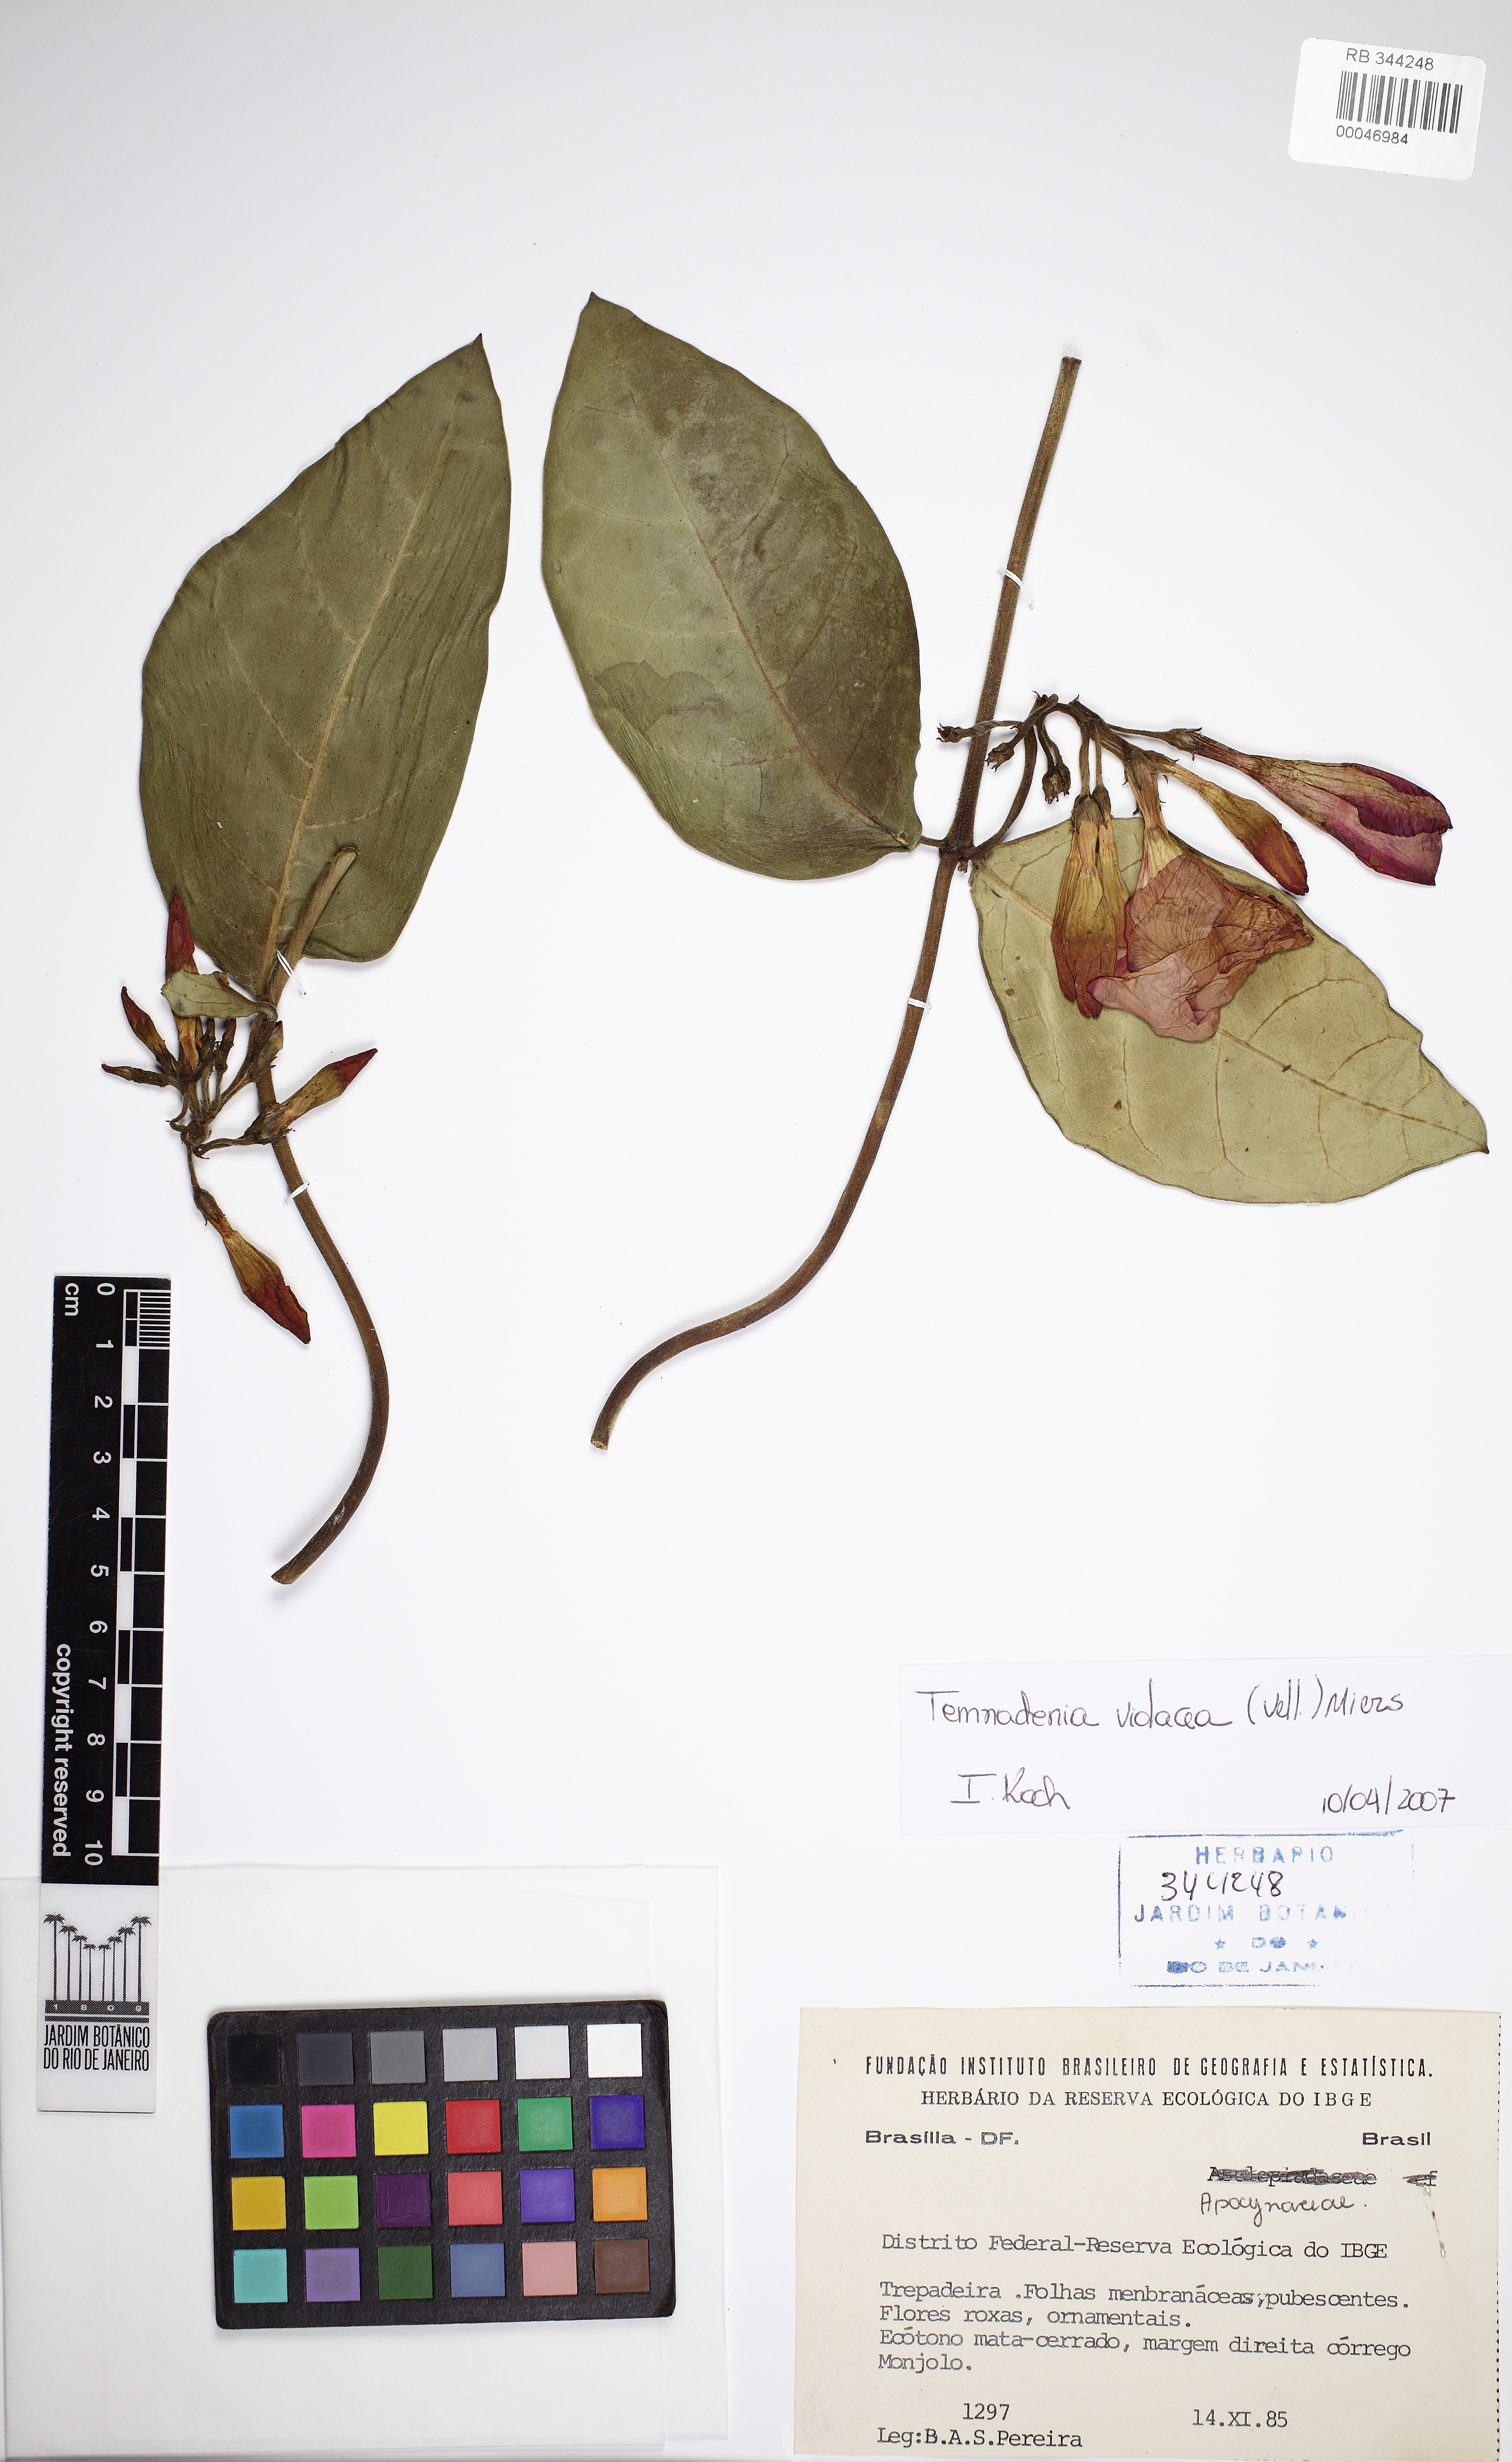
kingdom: Plantae
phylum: Tracheophyta
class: Magnoliopsida
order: Gentianales
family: Apocynaceae
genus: Temnadenia
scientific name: Temnadenia violacea
